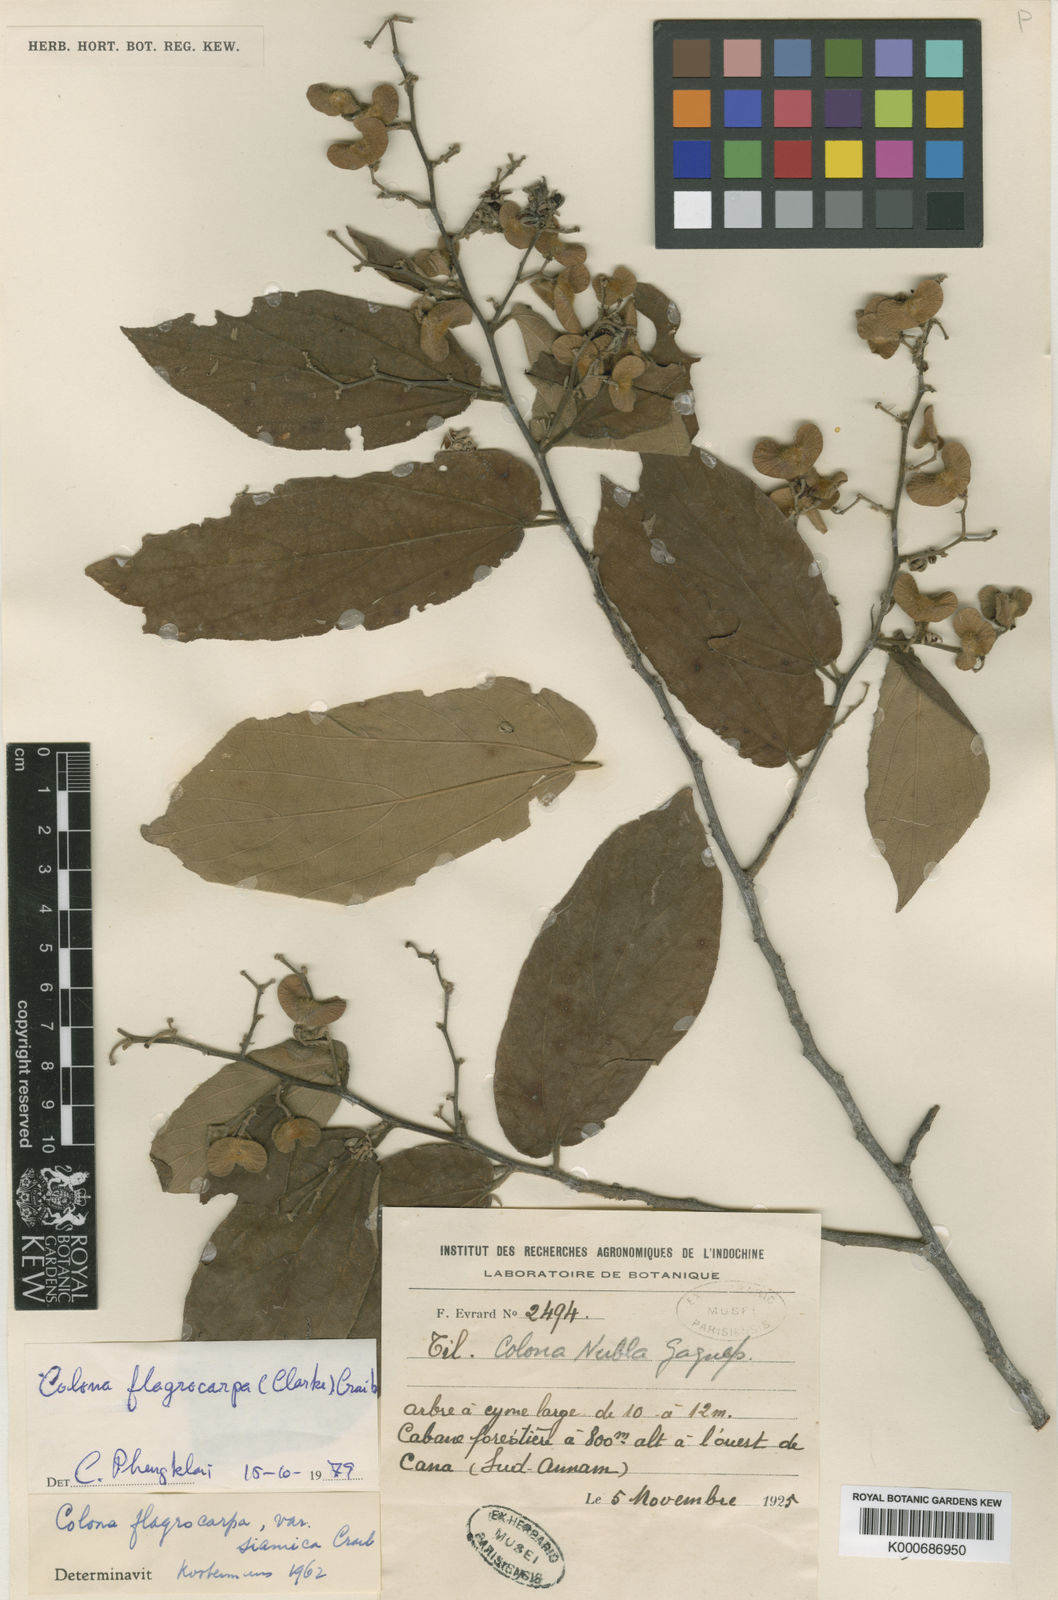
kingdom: Plantae
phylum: Tracheophyta
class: Magnoliopsida
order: Malvales
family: Malvaceae
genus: Colona
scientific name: Colona nubla
